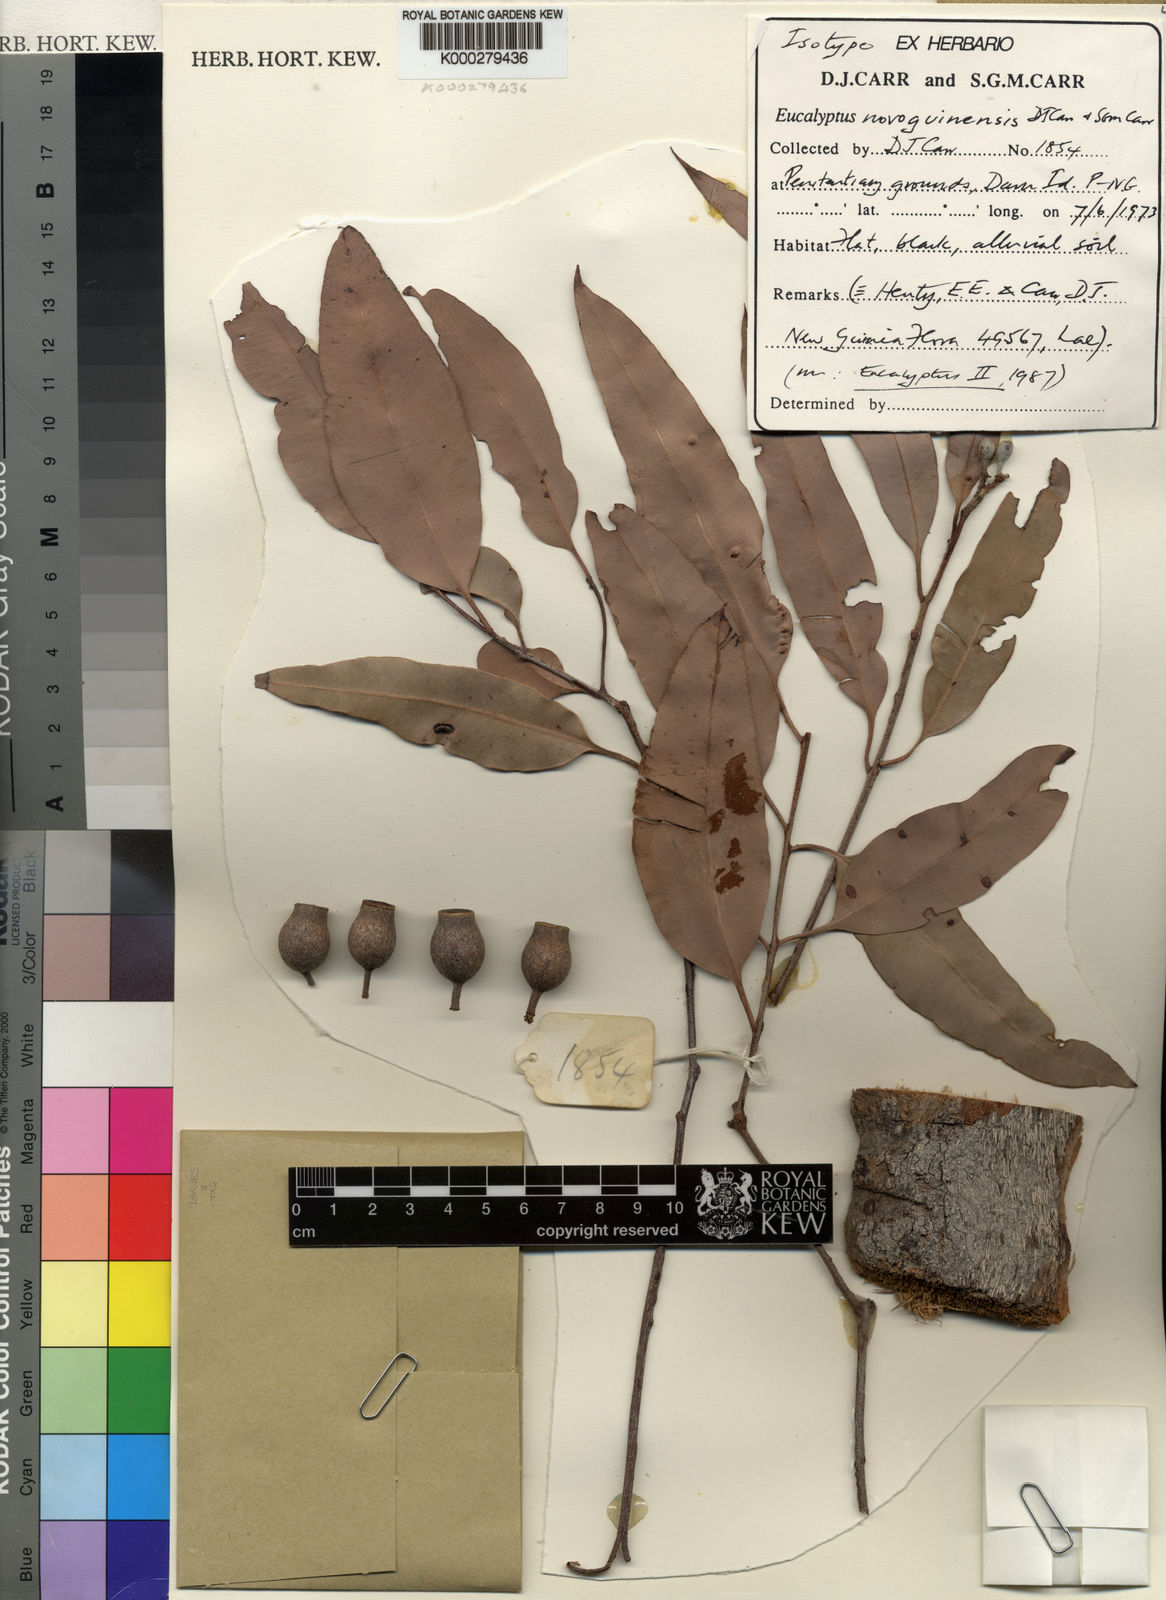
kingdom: Plantae
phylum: Tracheophyta
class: Magnoliopsida
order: Myrtales
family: Myrtaceae
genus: Corymbia
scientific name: Corymbia novoguinensis
